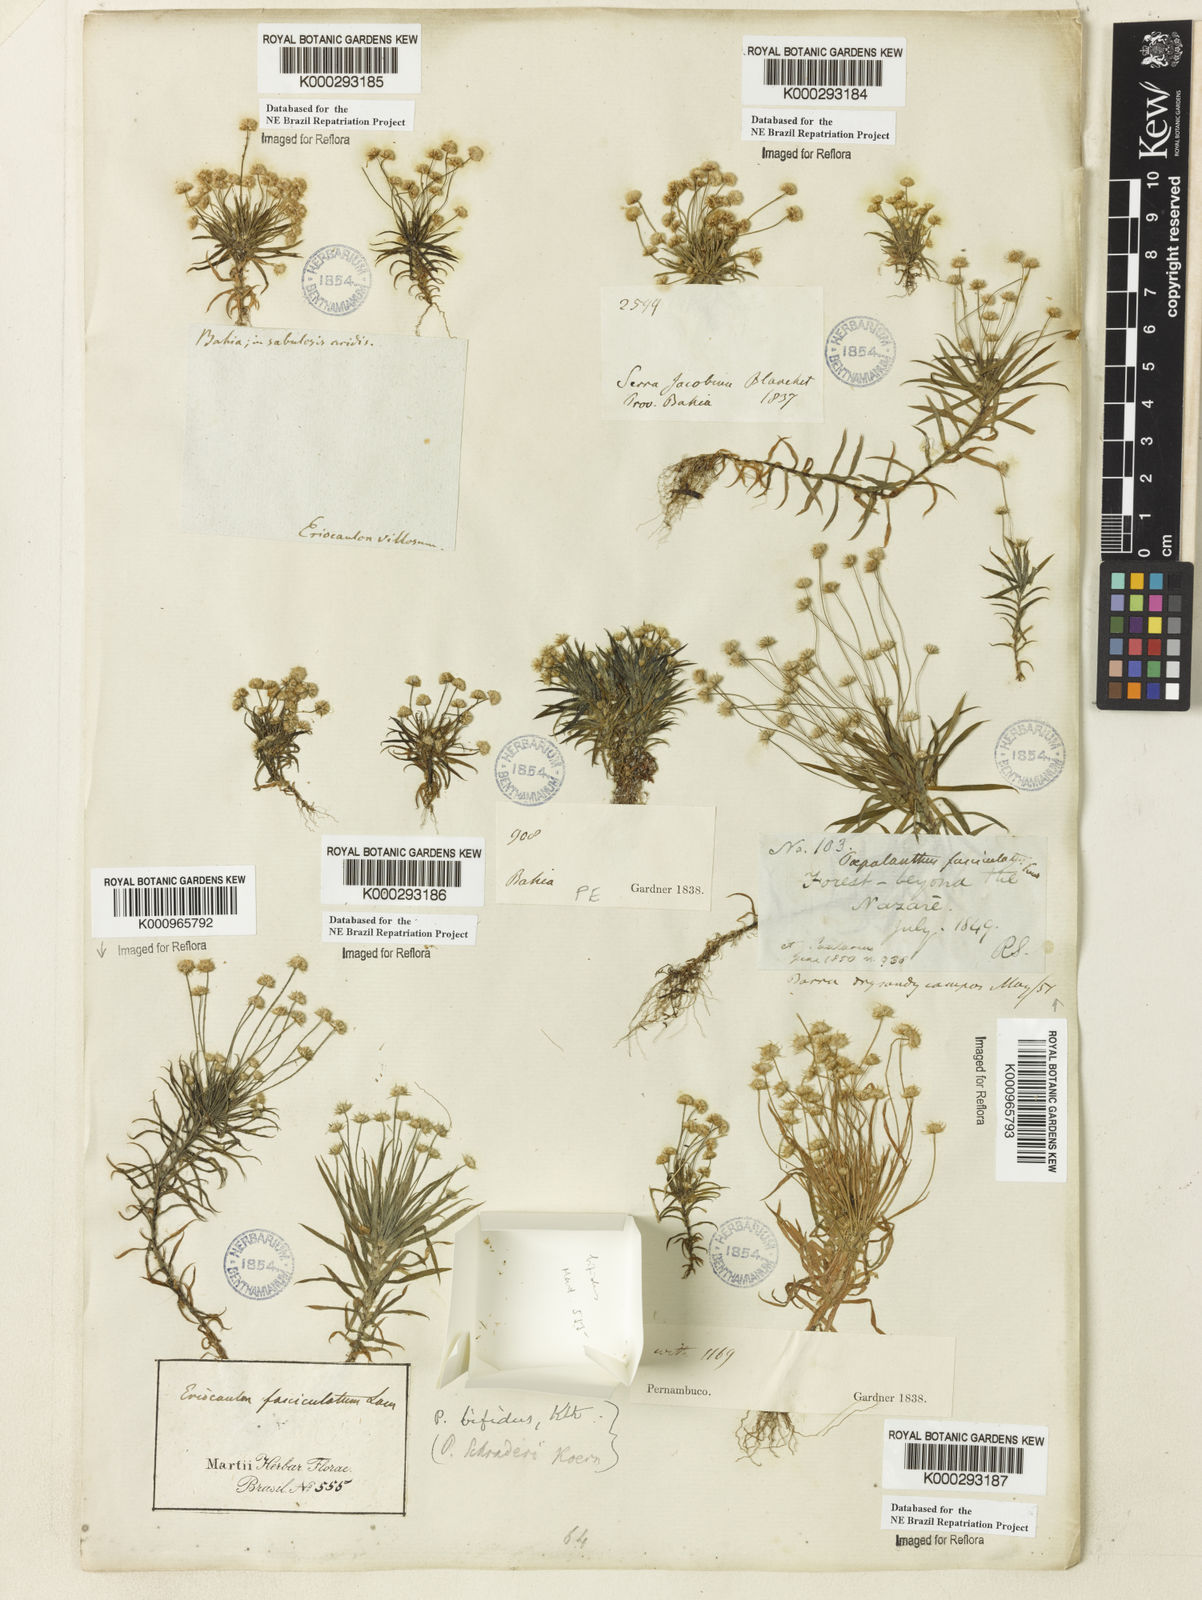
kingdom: Plantae
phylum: Tracheophyta
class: Liliopsida
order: Poales
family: Eriocaulaceae
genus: Paepalanthus
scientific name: Paepalanthus bifidus
